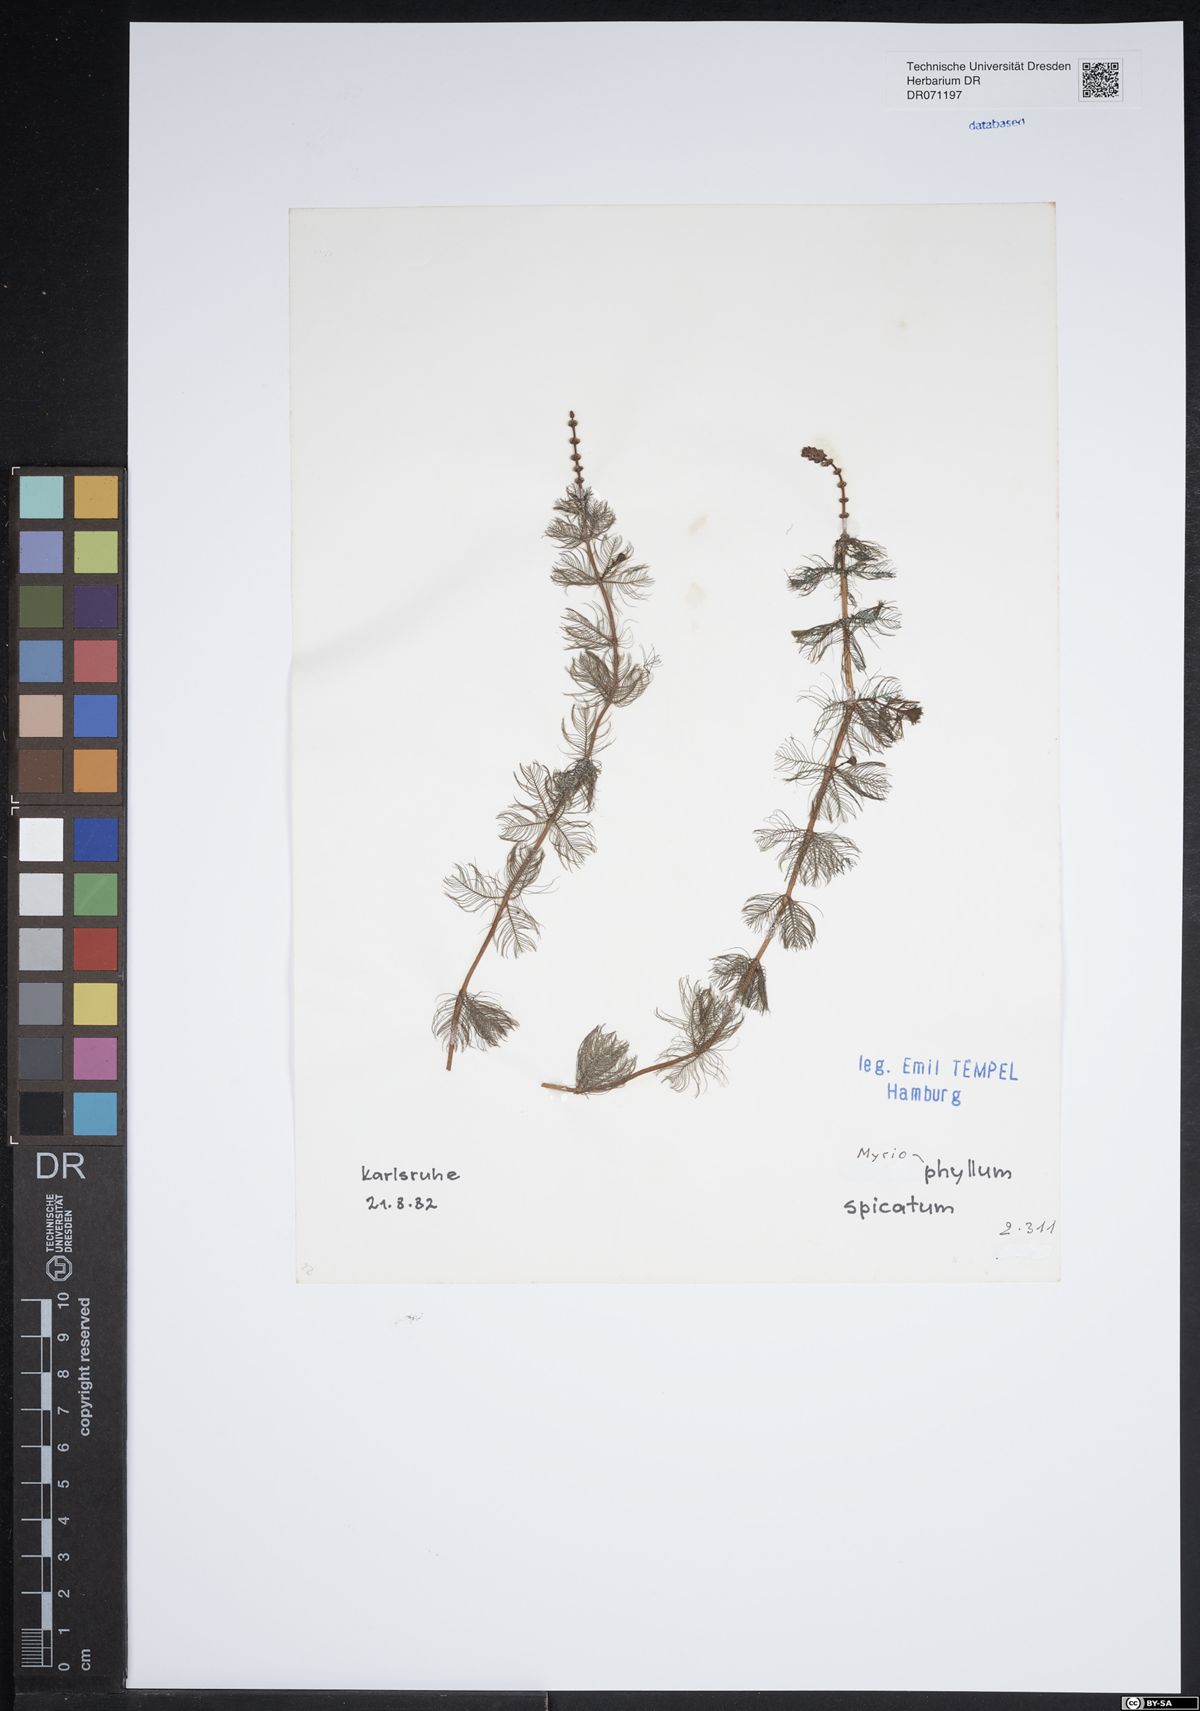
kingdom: Plantae
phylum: Tracheophyta
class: Magnoliopsida
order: Saxifragales
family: Haloragaceae
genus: Myriophyllum
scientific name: Myriophyllum spicatum
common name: Spiked water-milfoil
